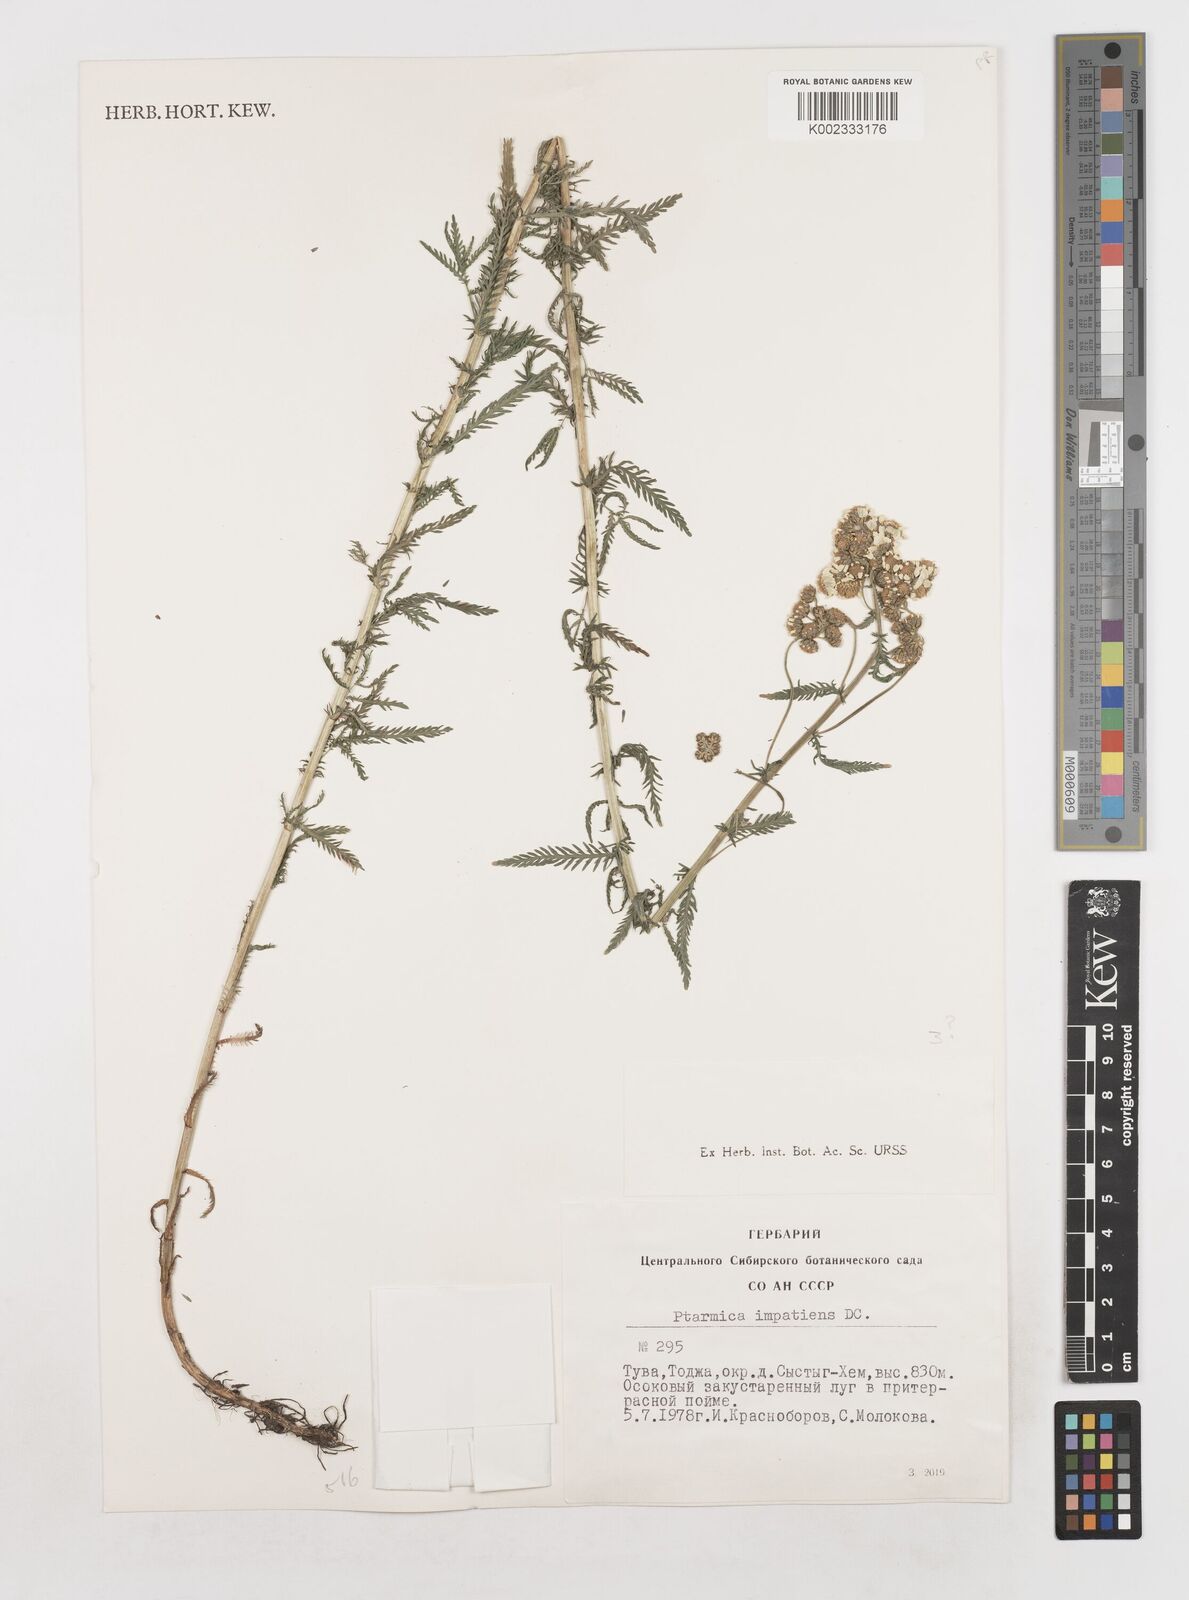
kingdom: Plantae
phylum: Tracheophyta
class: Magnoliopsida
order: Asterales
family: Asteraceae
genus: Achillea
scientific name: Achillea impatiens
